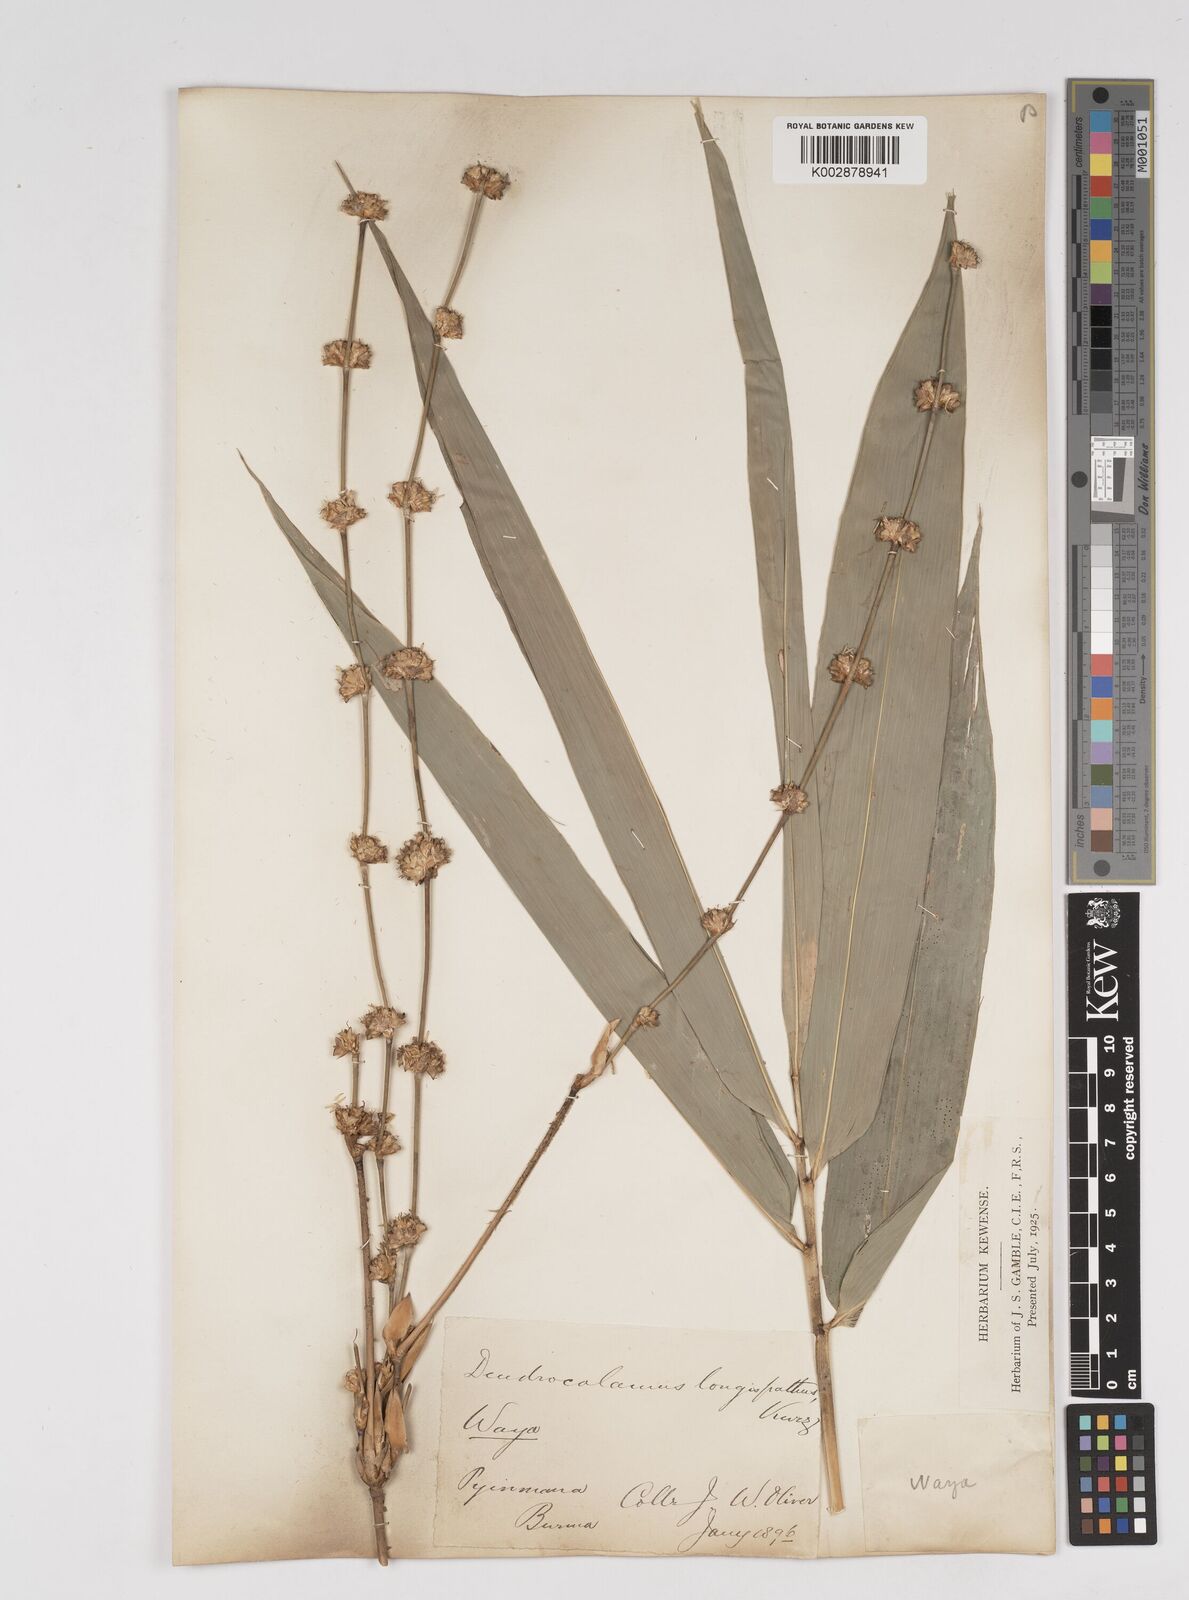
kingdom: Plantae
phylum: Tracheophyta
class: Liliopsida
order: Poales
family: Poaceae
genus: Dendrocalamus
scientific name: Dendrocalamus longispathus
